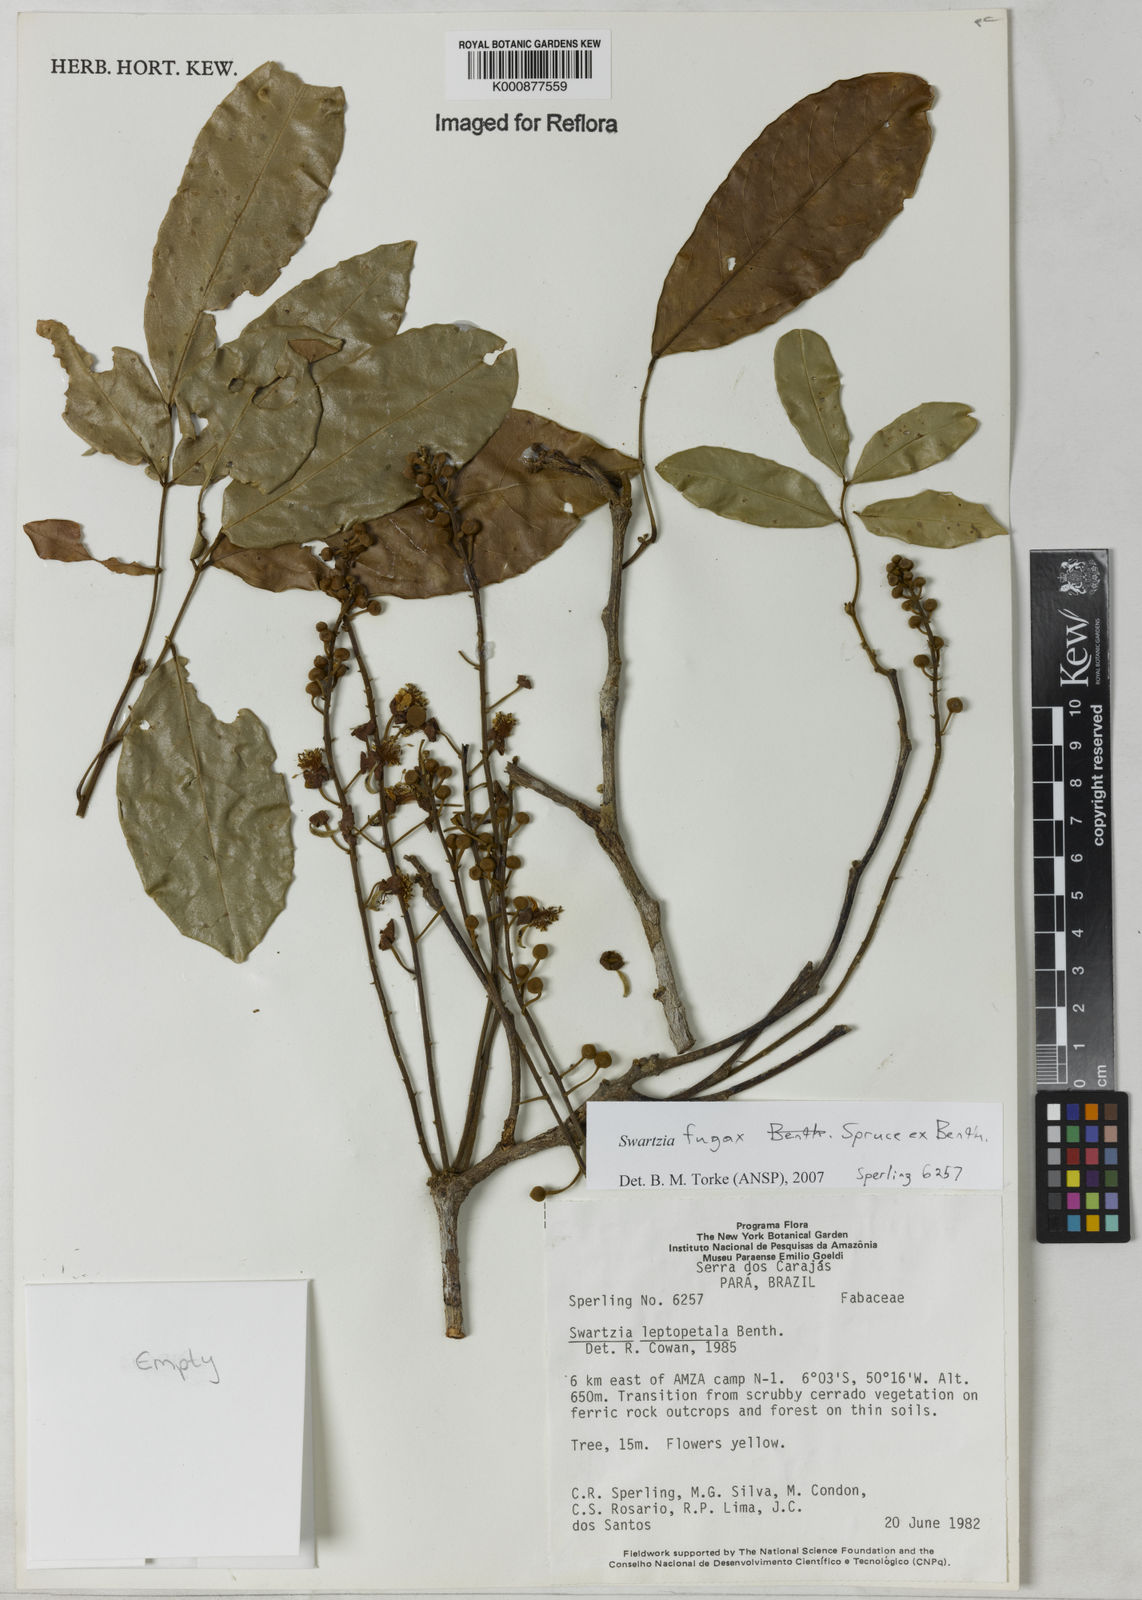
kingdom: Plantae
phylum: Tracheophyta
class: Magnoliopsida
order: Fabales
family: Fabaceae
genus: Swartzia
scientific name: Swartzia leptopetala
